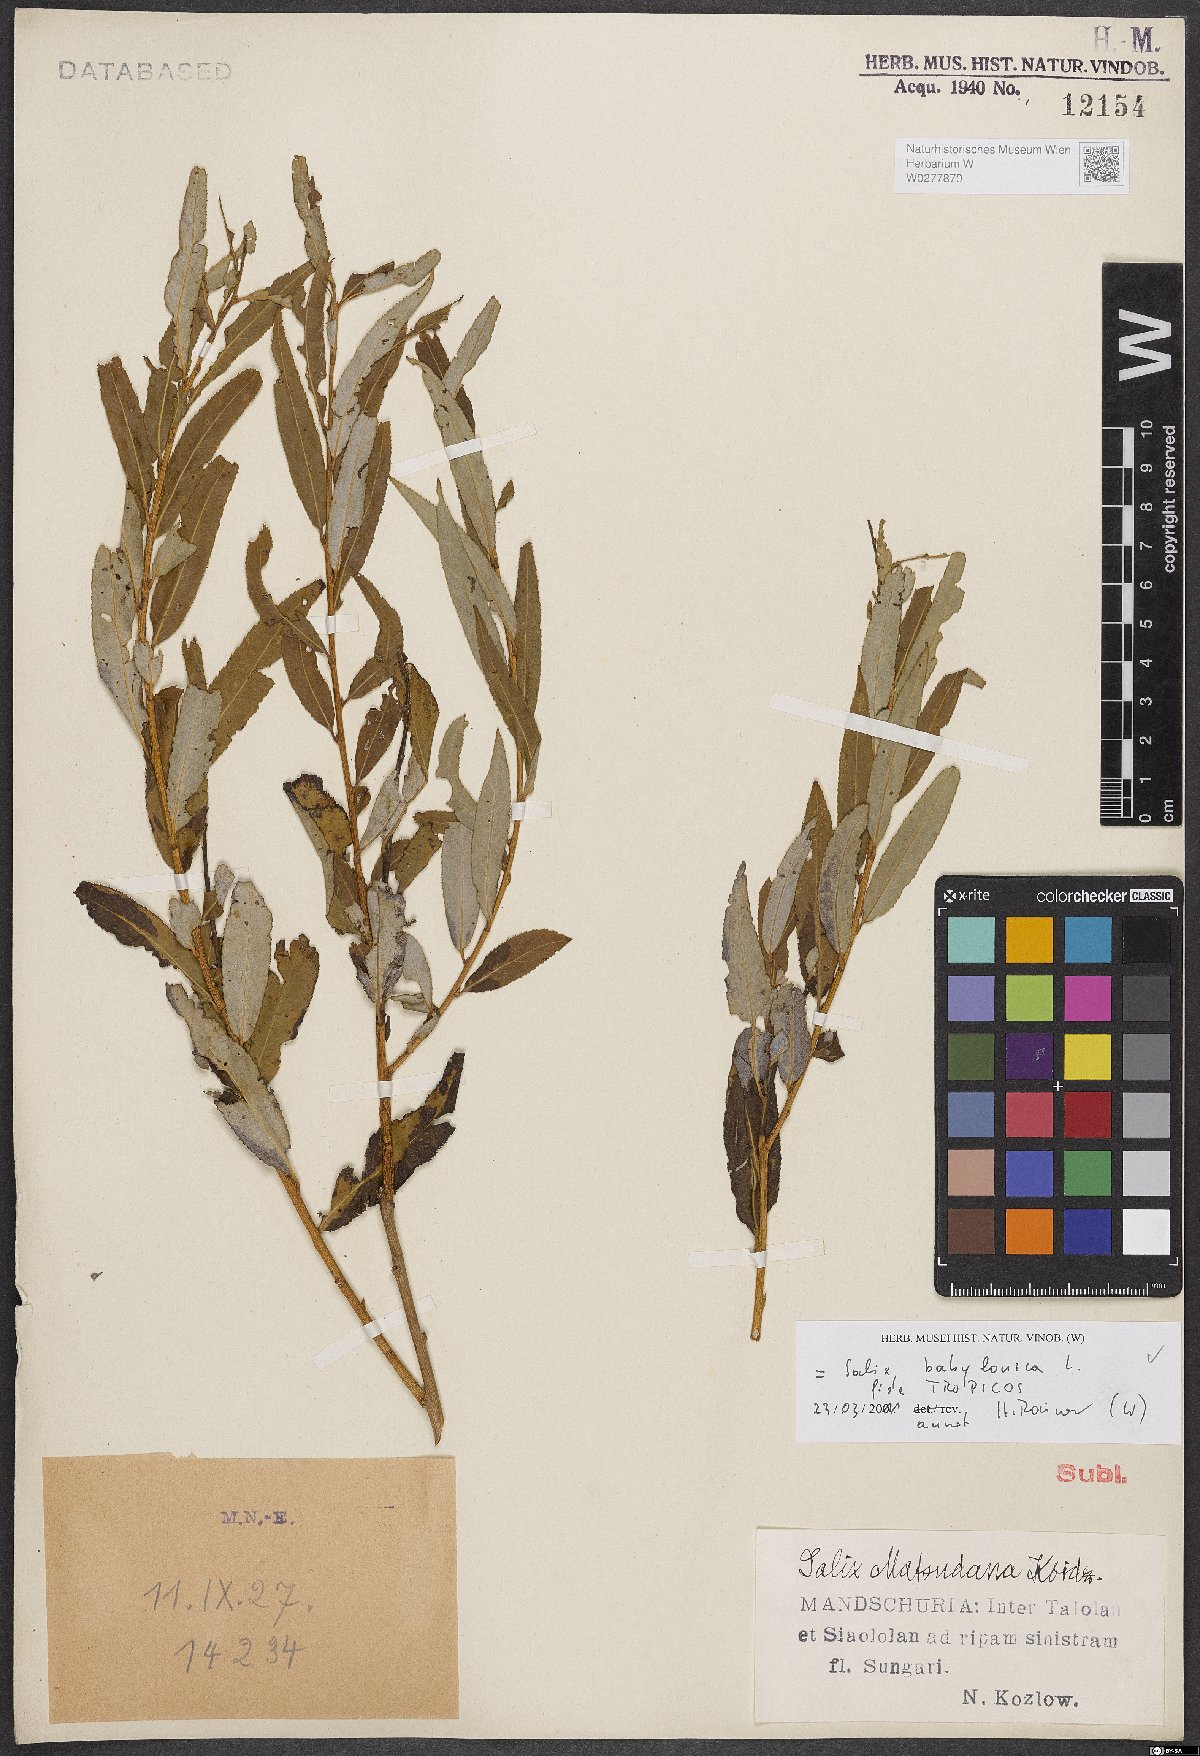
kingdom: Plantae
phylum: Tracheophyta
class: Magnoliopsida
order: Malpighiales
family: Salicaceae
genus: Salix
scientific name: Salix babylonica
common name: Weeping willow
